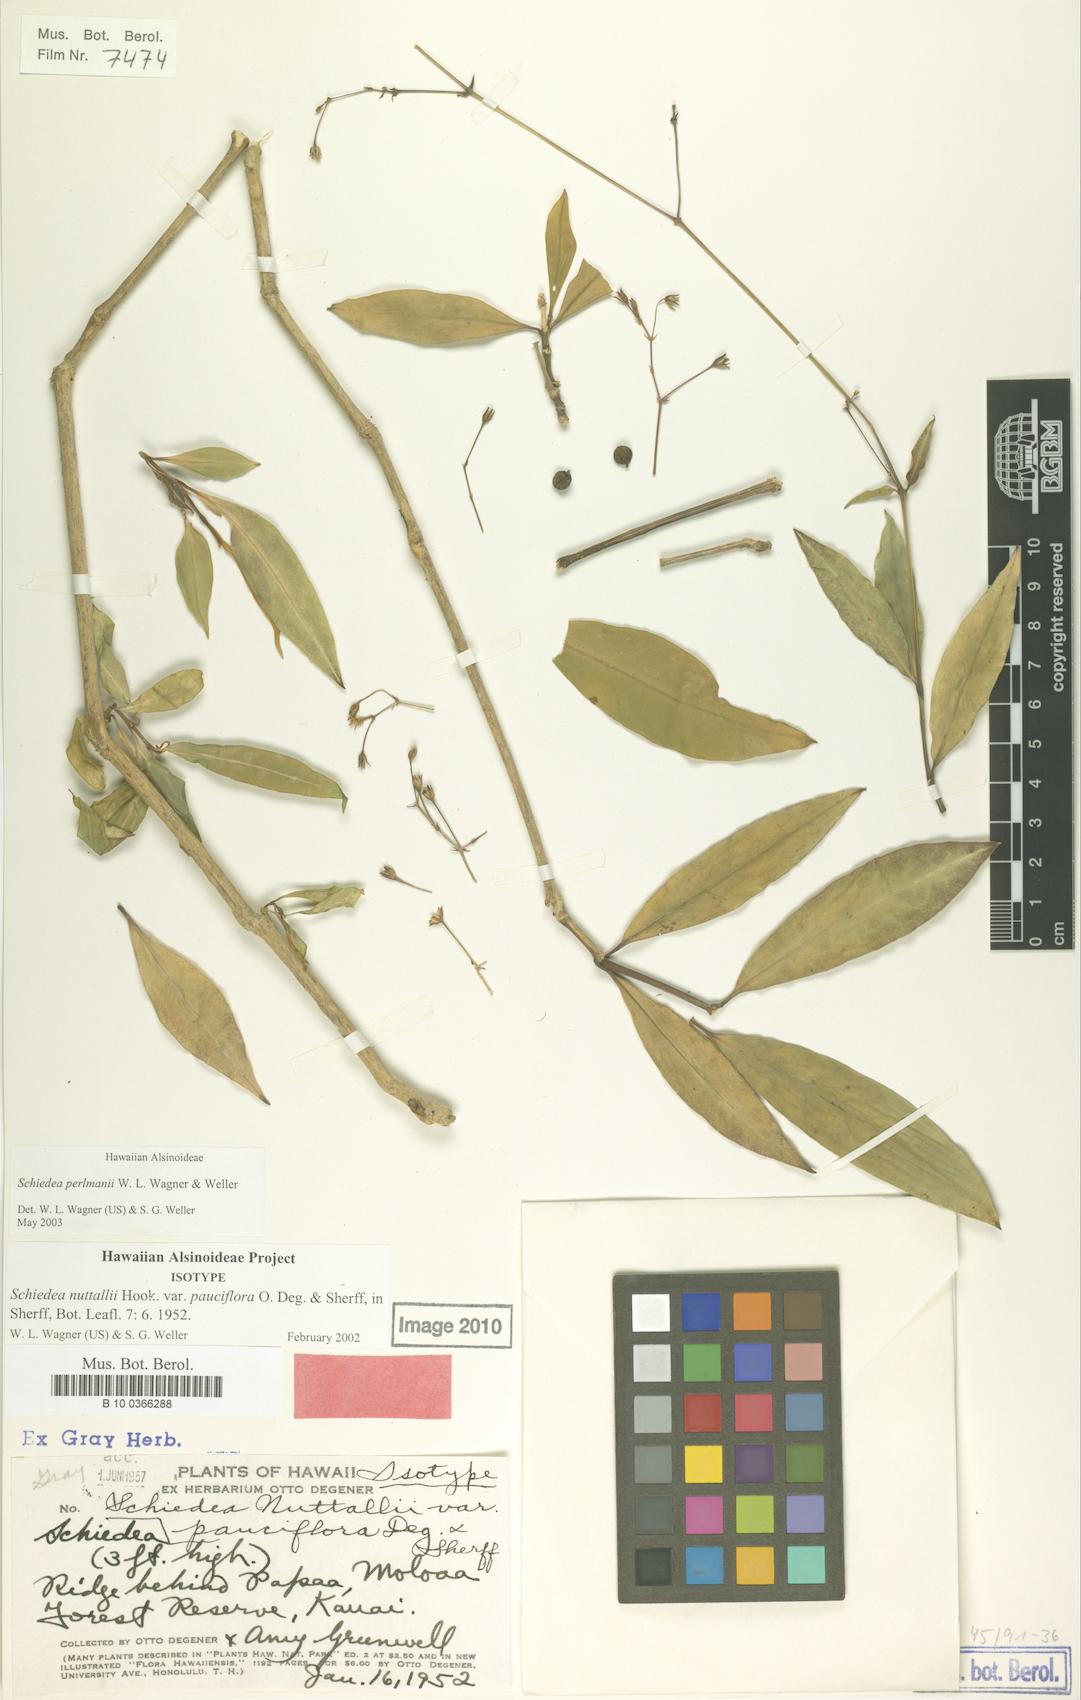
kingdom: Plantae
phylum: Tracheophyta
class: Magnoliopsida
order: Caryophyllales
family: Caryophyllaceae
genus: Schiedea
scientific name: Schiedea perlmanii
